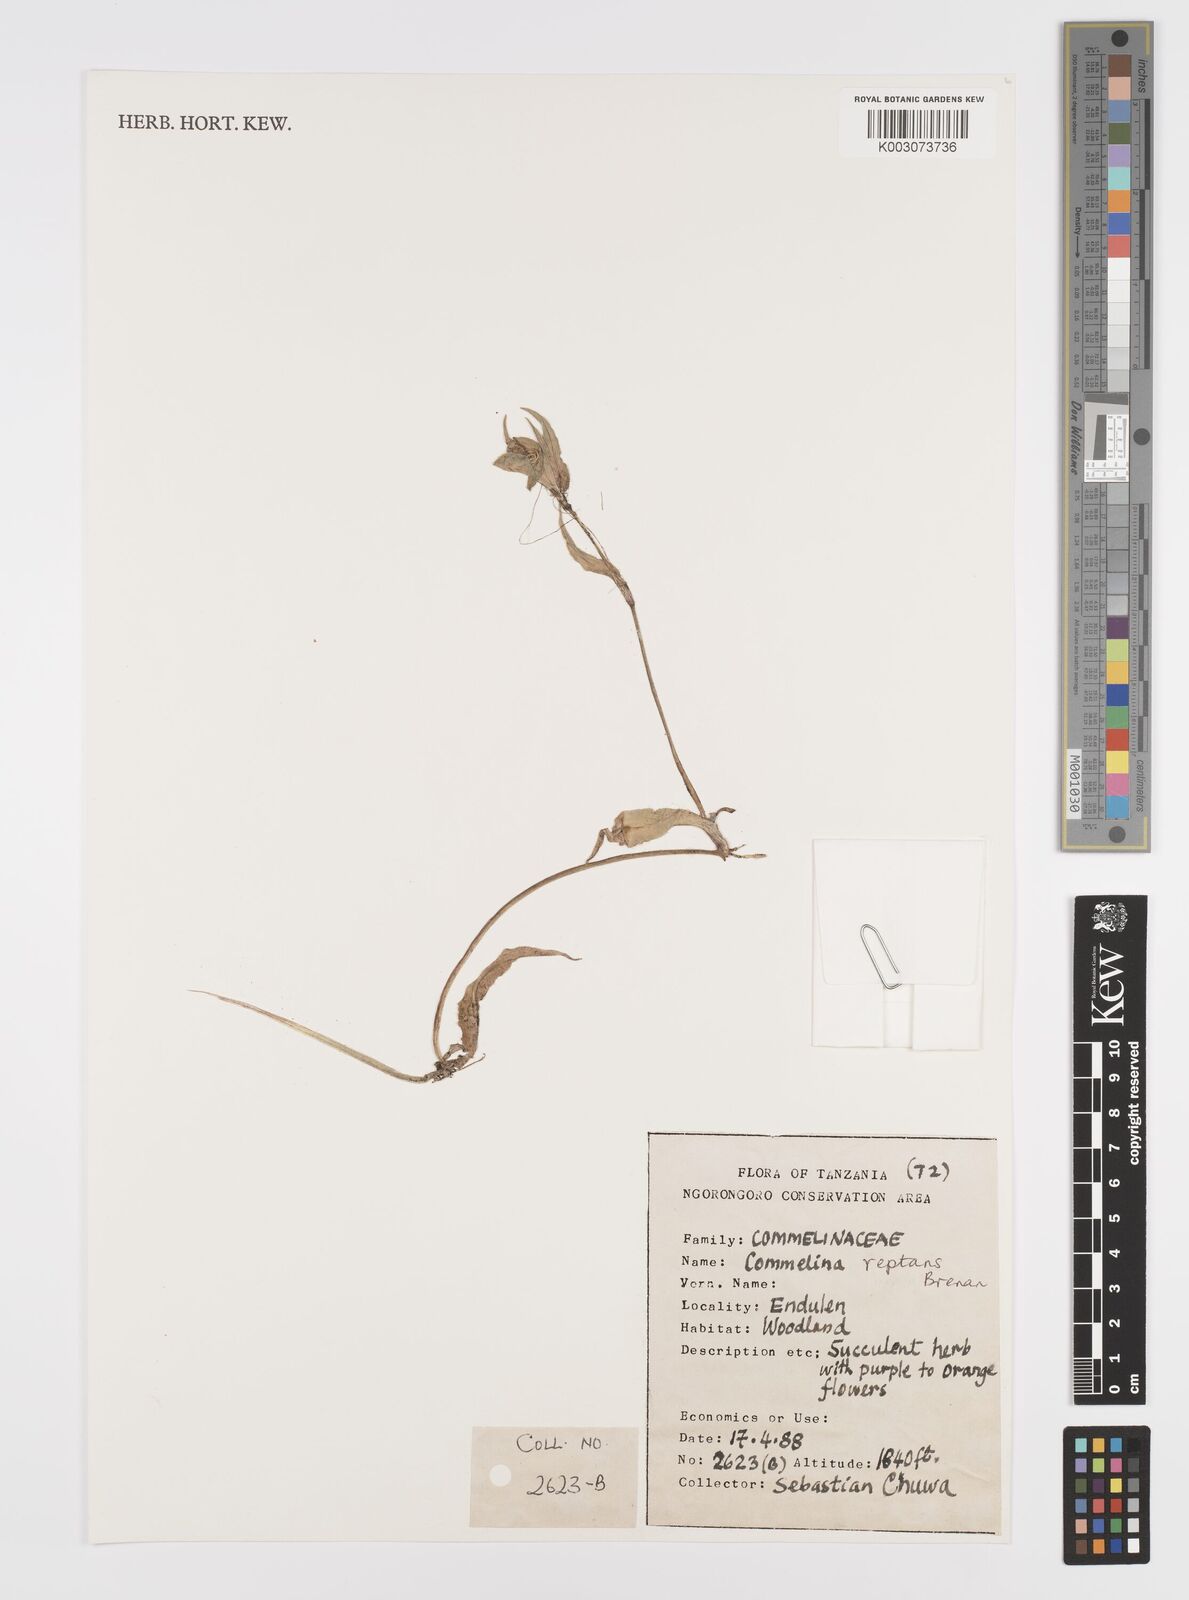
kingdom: Plantae
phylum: Tracheophyta
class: Liliopsida
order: Commelinales
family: Commelinaceae
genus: Commelina
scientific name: Commelina reptans
